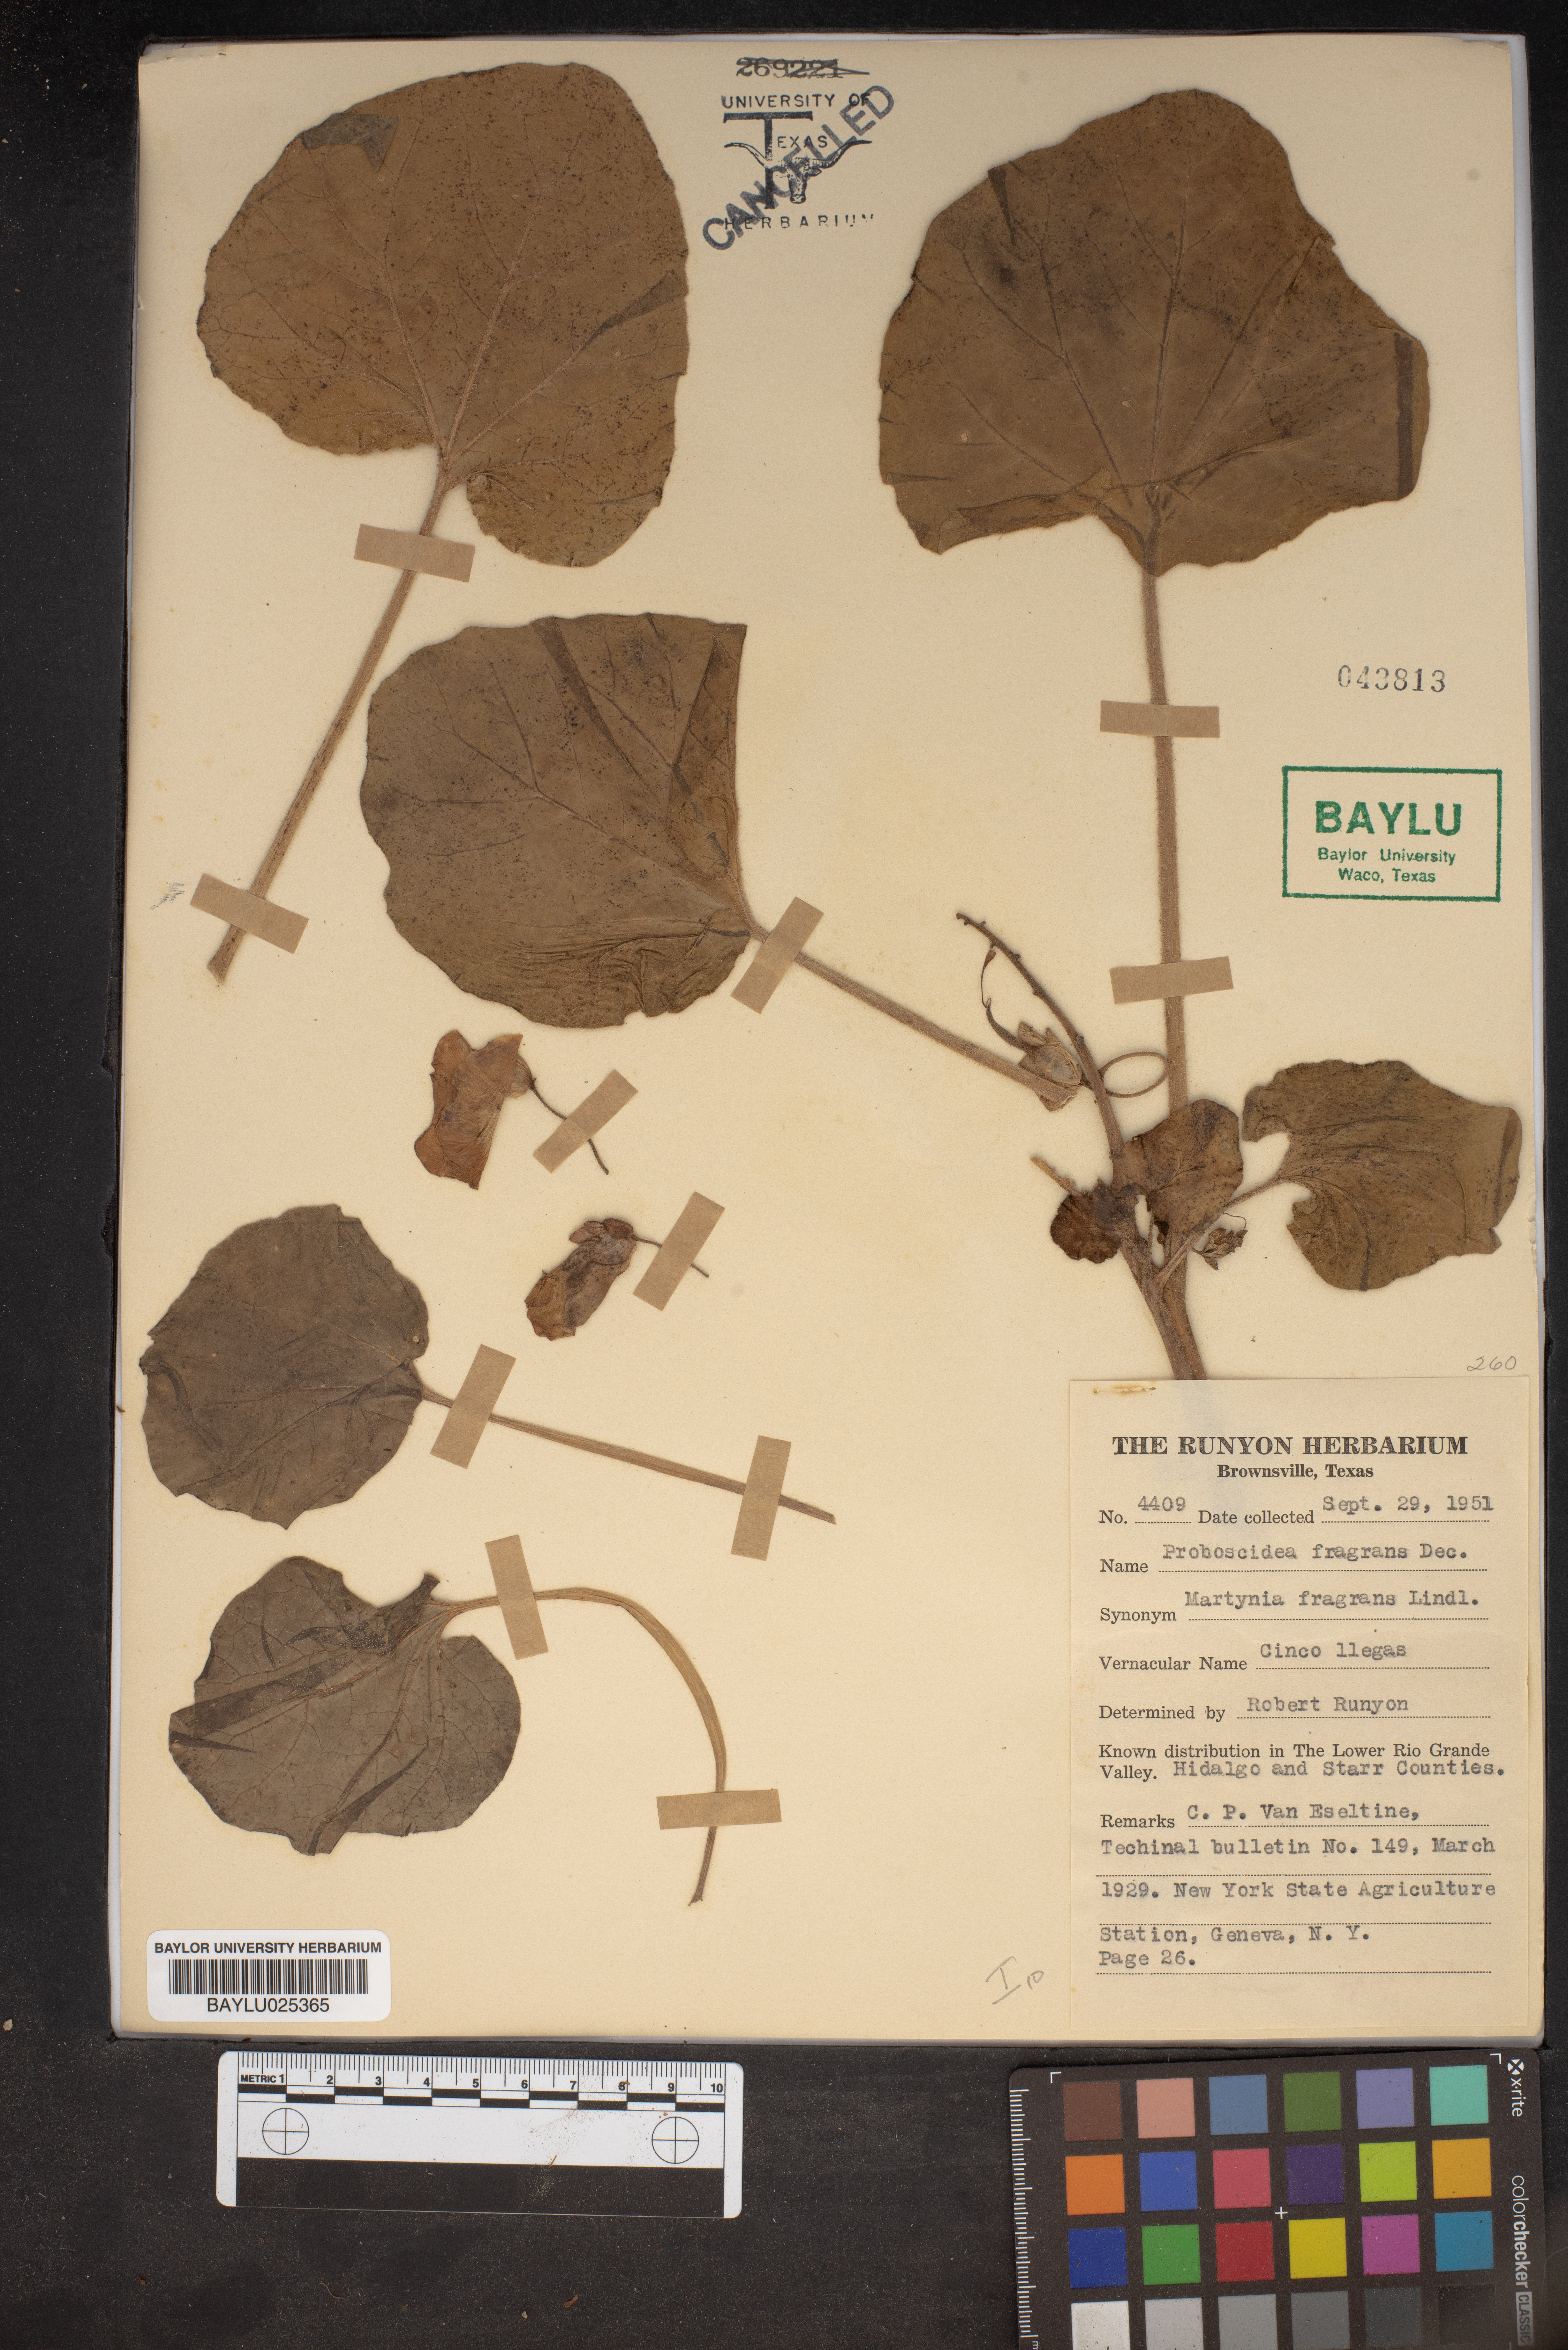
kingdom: Plantae
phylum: Tracheophyta
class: Magnoliopsida
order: Lamiales
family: Martyniaceae
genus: Proboscidea
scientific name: Proboscidea louisianica
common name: Elephant tusks
